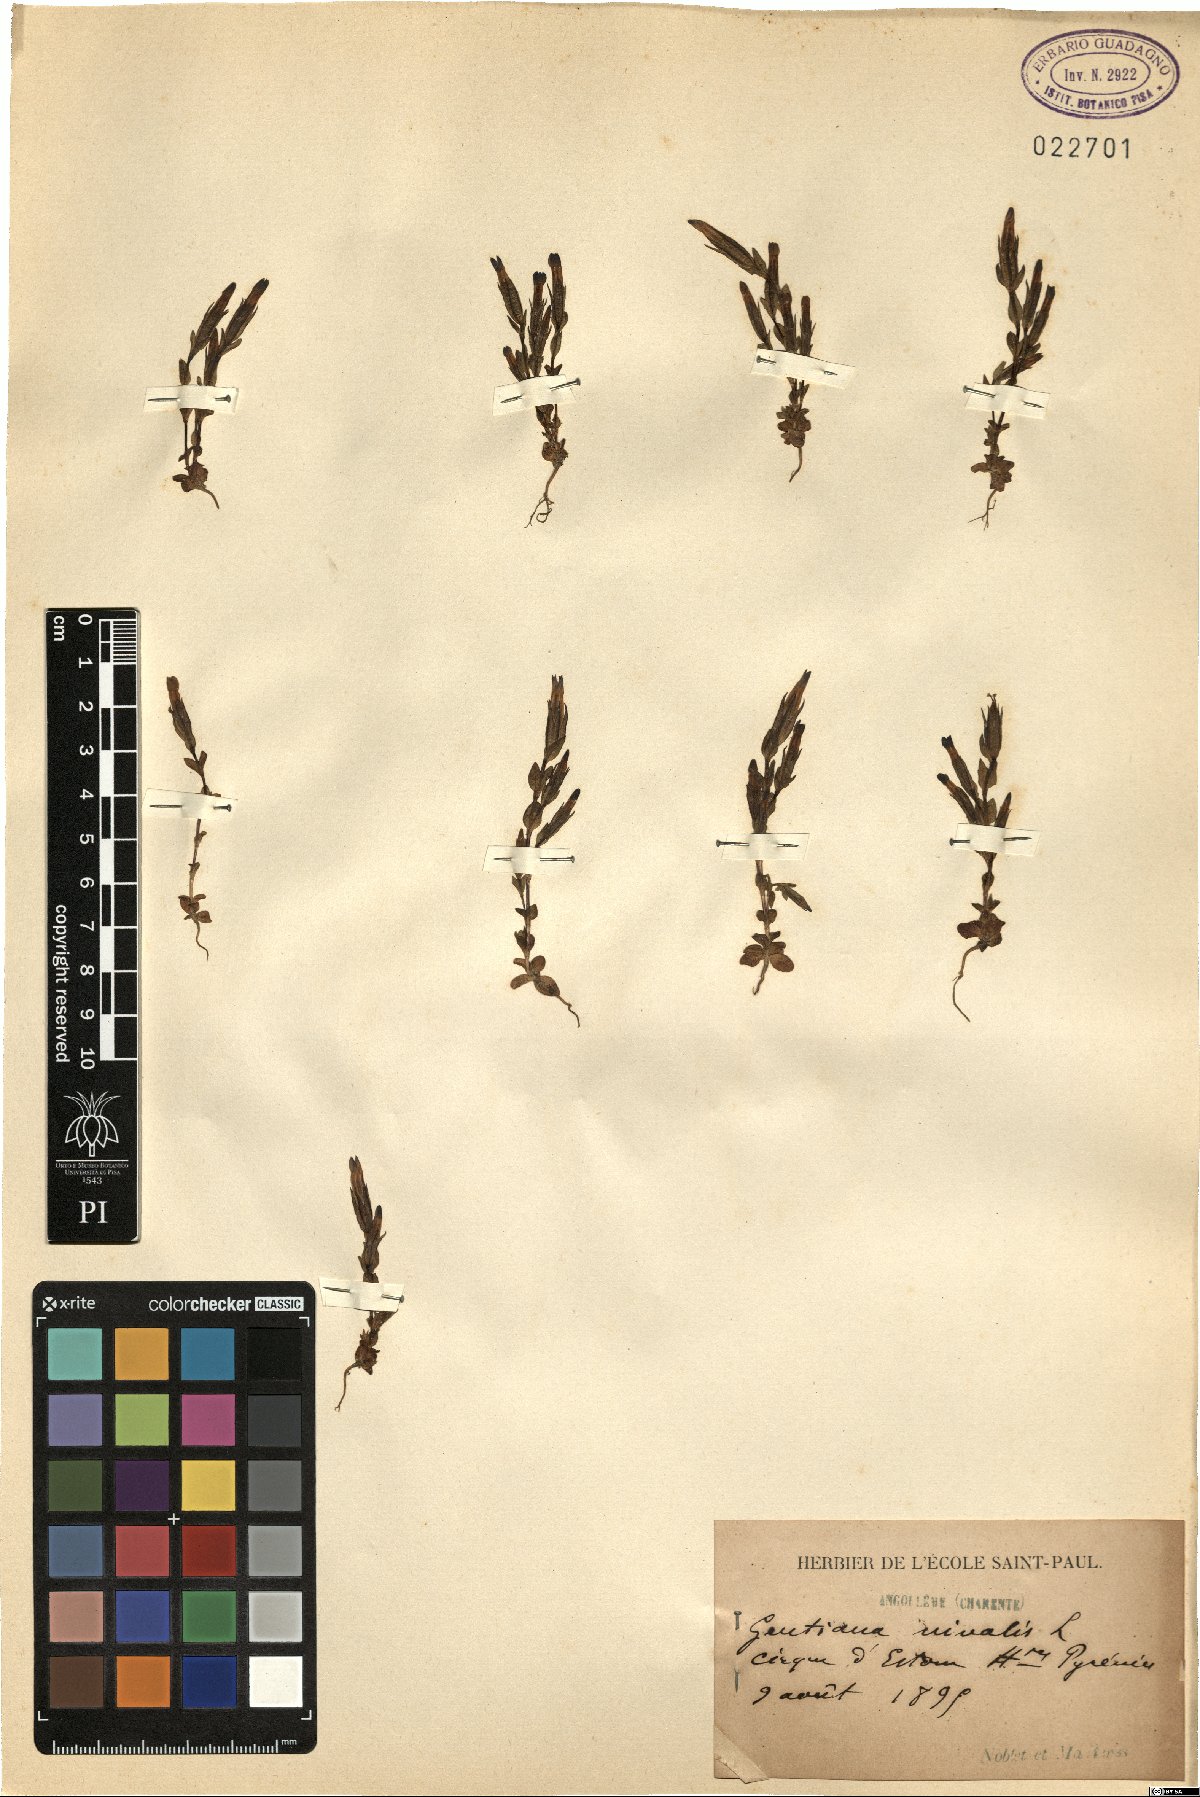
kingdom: Plantae
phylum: Tracheophyta
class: Magnoliopsida
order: Gentianales
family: Gentianaceae
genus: Gentiana
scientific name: Gentiana nivalis
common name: Alpine gentian
